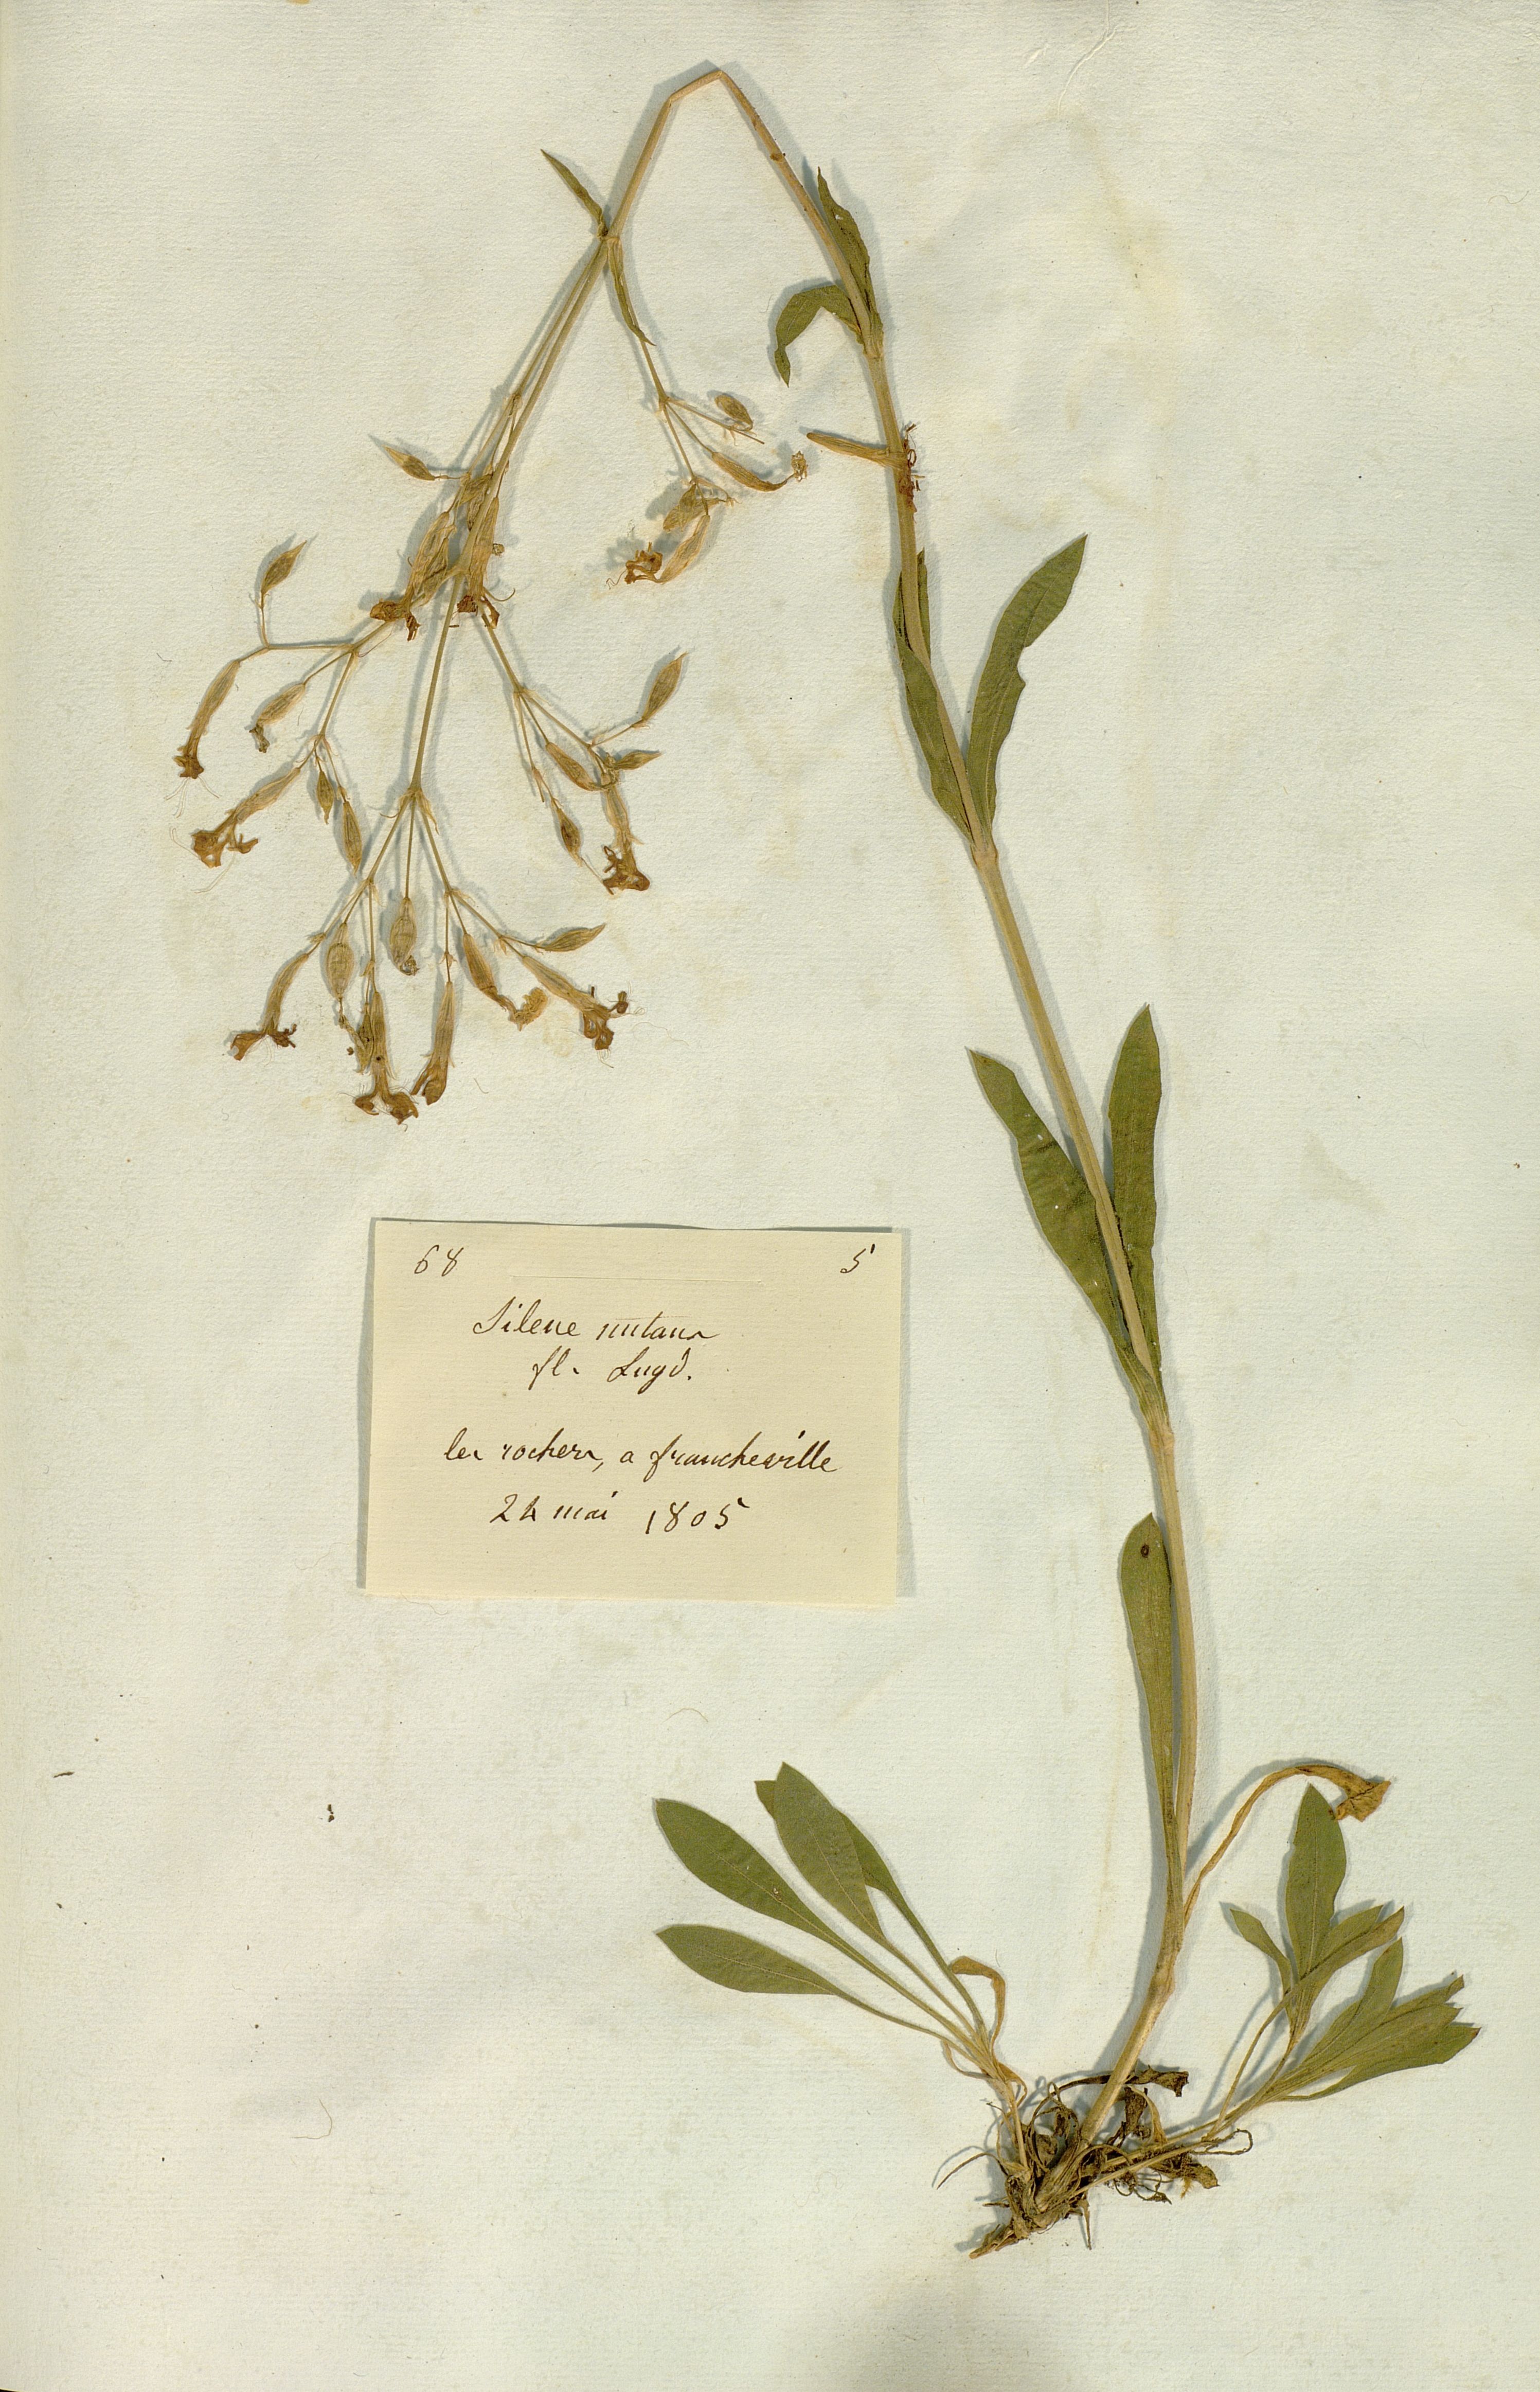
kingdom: Plantae
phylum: Tracheophyta
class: Magnoliopsida
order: Caryophyllales
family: Caryophyllaceae
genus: Silene
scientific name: Silene nutans
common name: Nottingham catchfly
